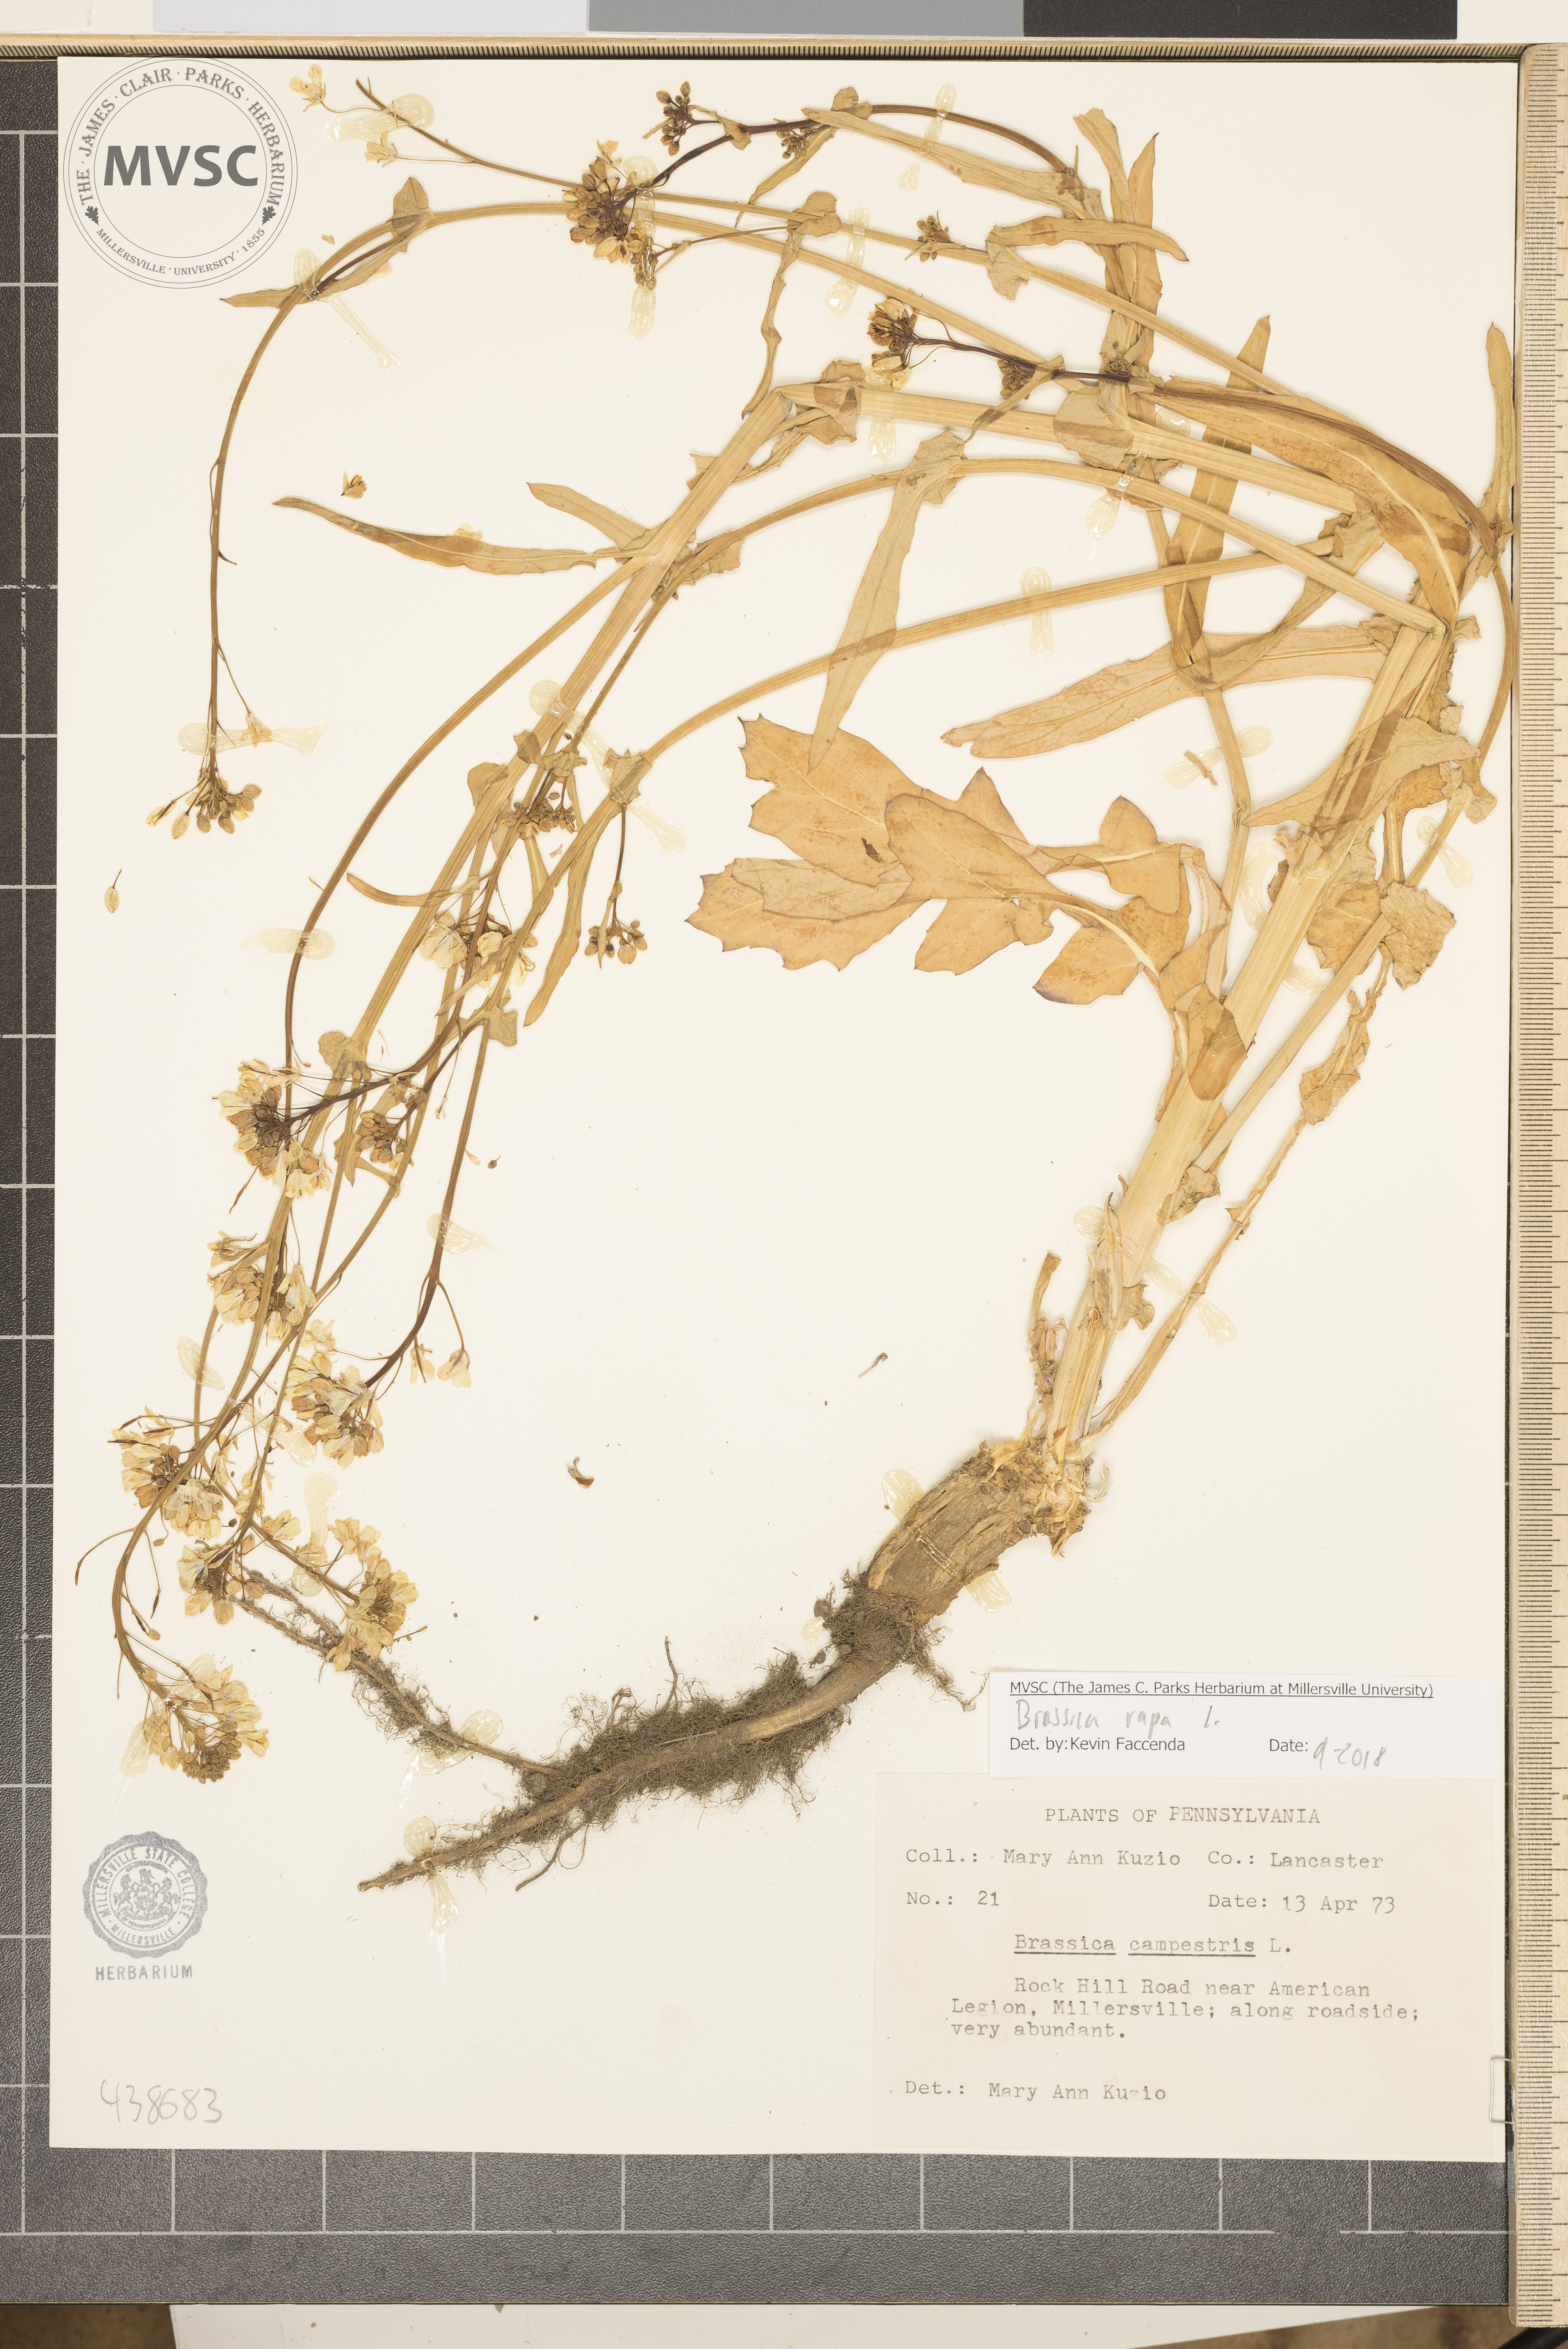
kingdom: Plantae
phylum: Tracheophyta
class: Magnoliopsida
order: Brassicales
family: Brassicaceae
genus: Brassica
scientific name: Brassica rapa
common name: Field mustard
